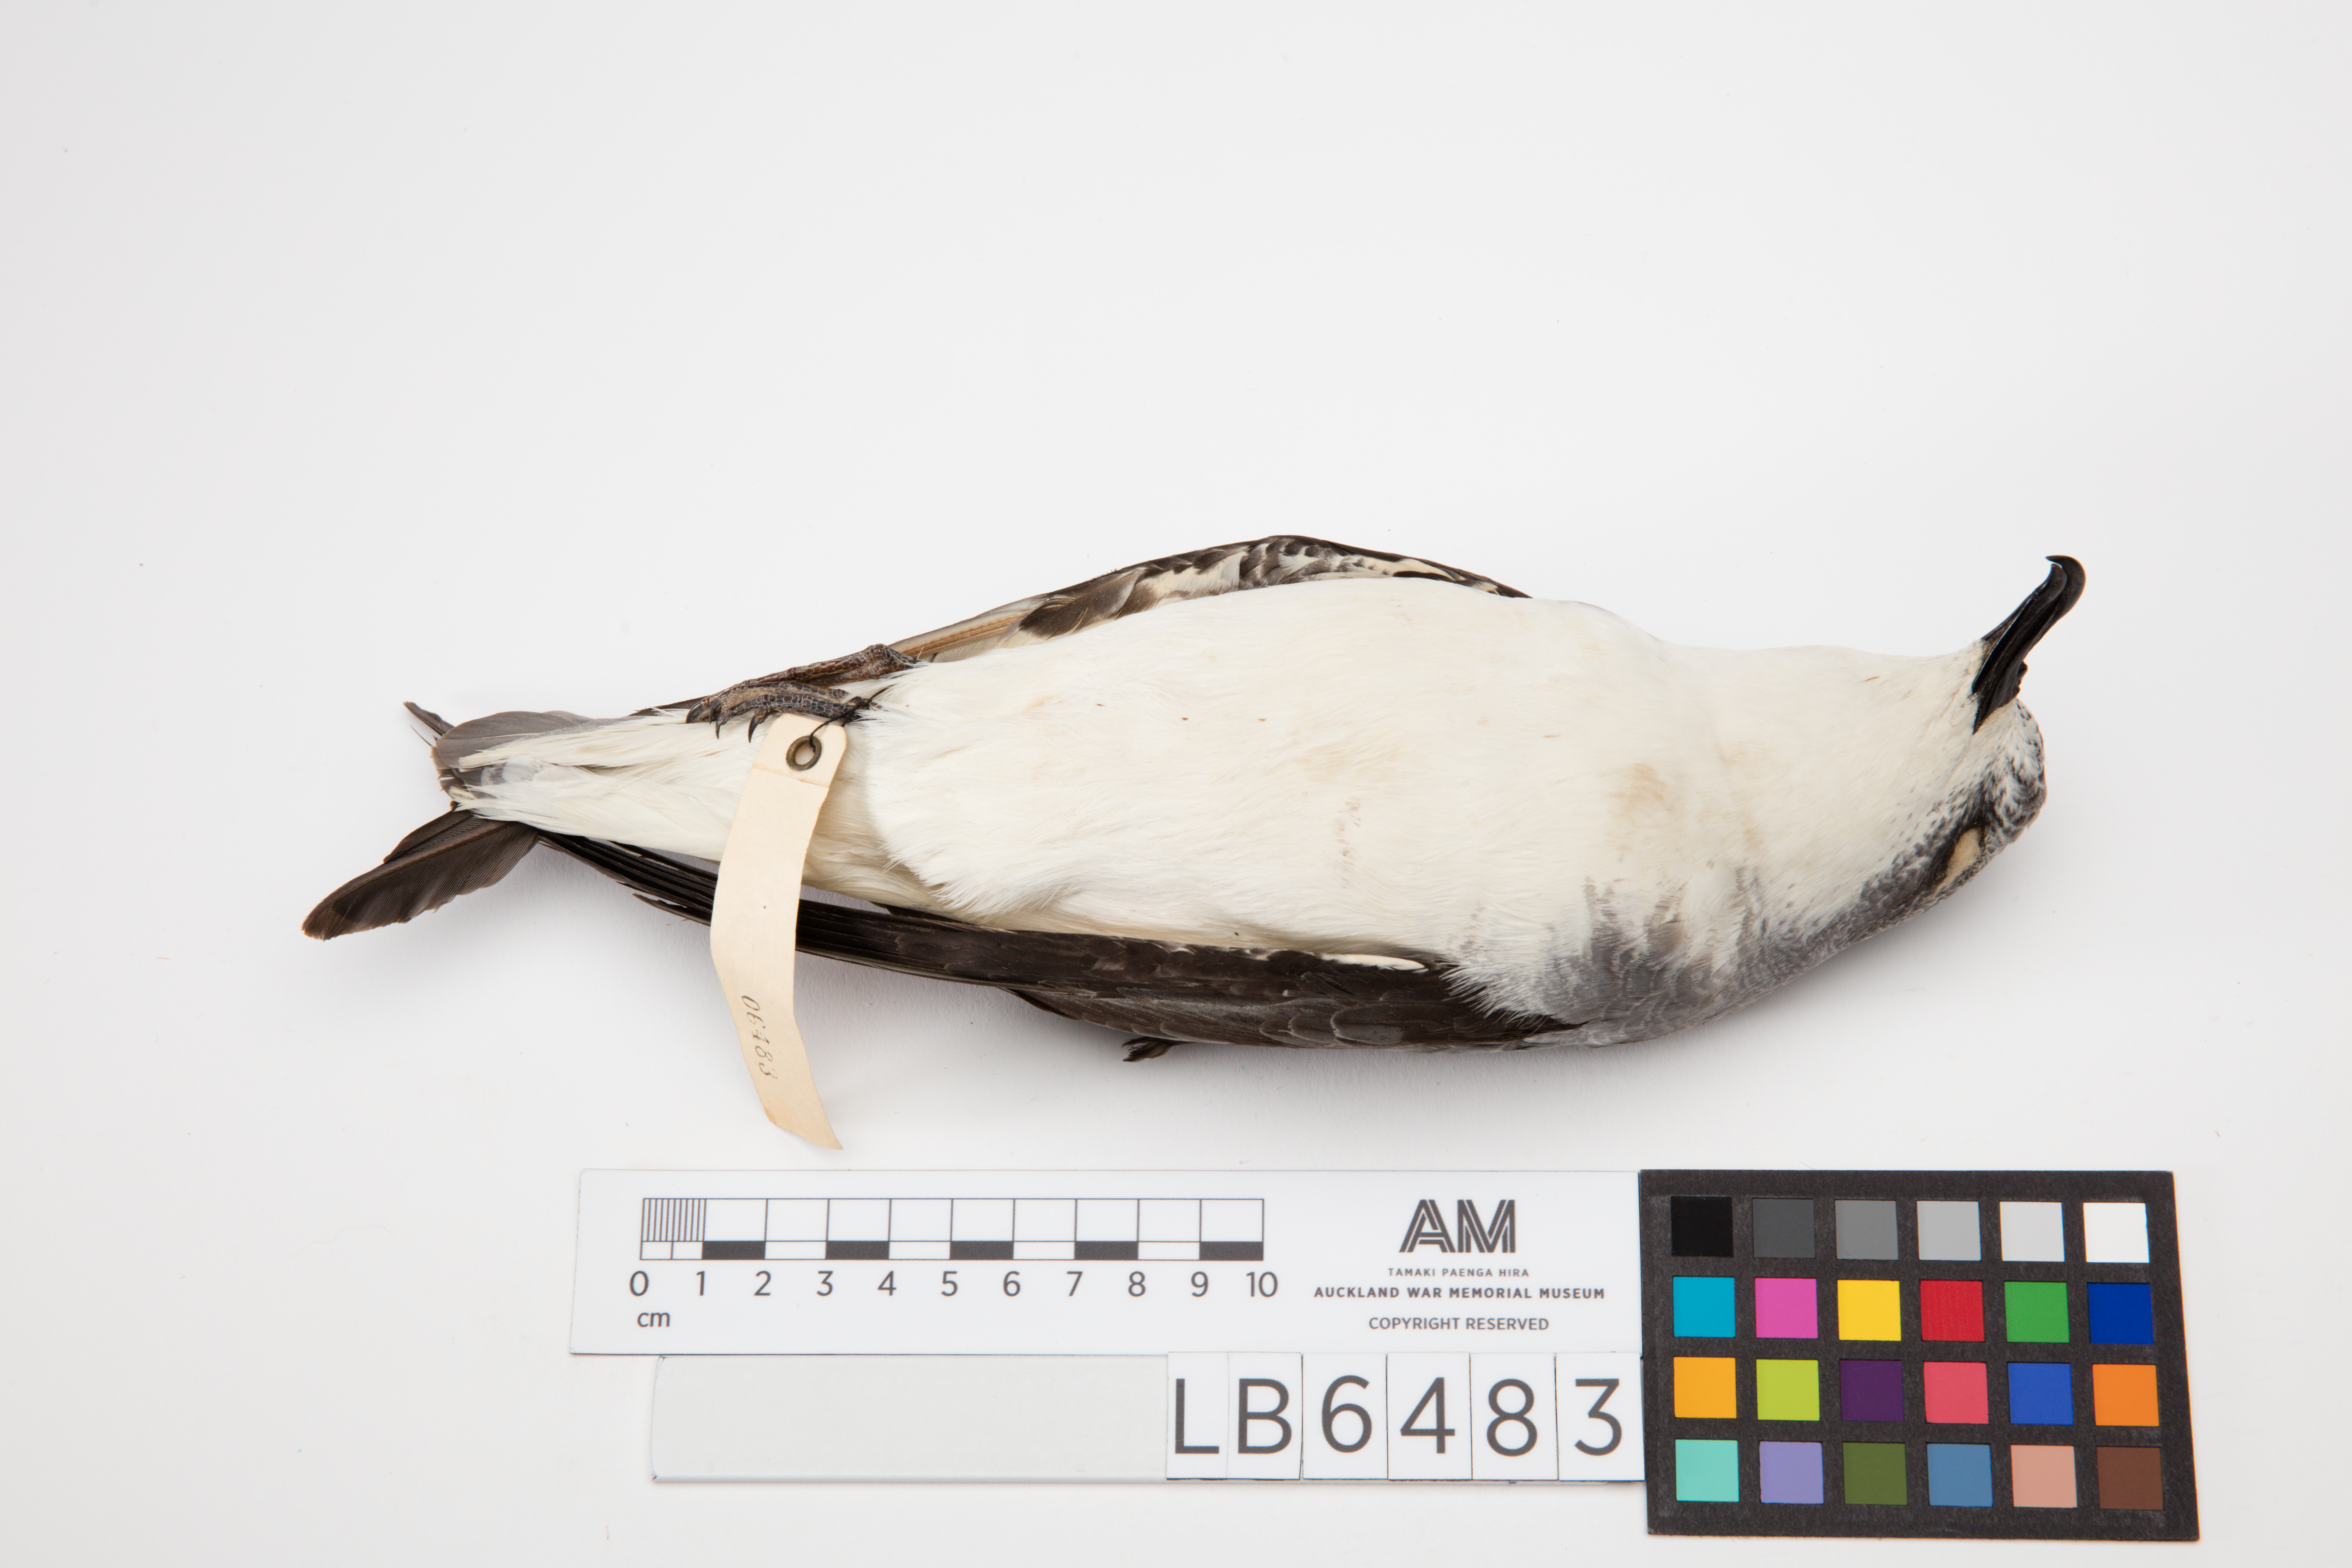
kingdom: Animalia
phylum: Chordata
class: Aves
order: Procellariiformes
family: Procellariidae
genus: Pterodroma
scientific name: Pterodroma cookii
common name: Cook's petrel
